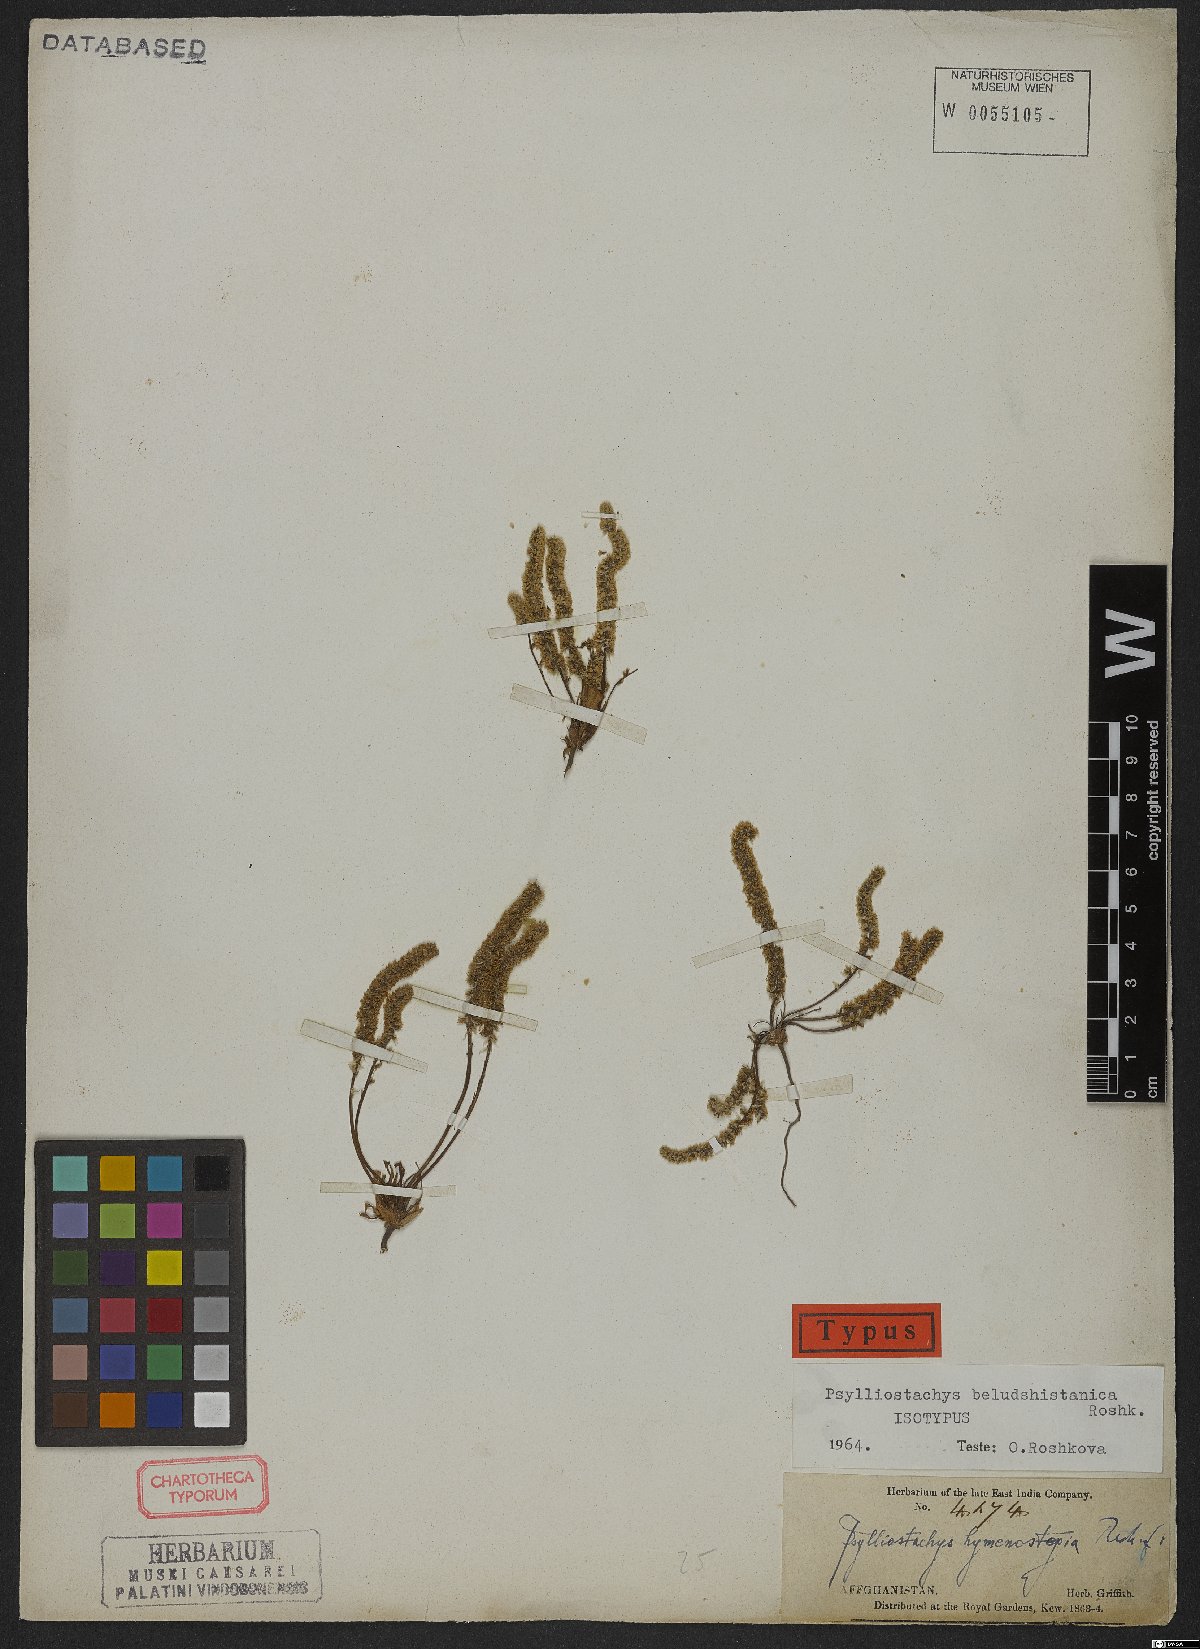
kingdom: Plantae
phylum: Tracheophyta
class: Magnoliopsida
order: Caryophyllales
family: Plumbaginaceae
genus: Psylliostachys
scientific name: Psylliostachys beludshistanicus
